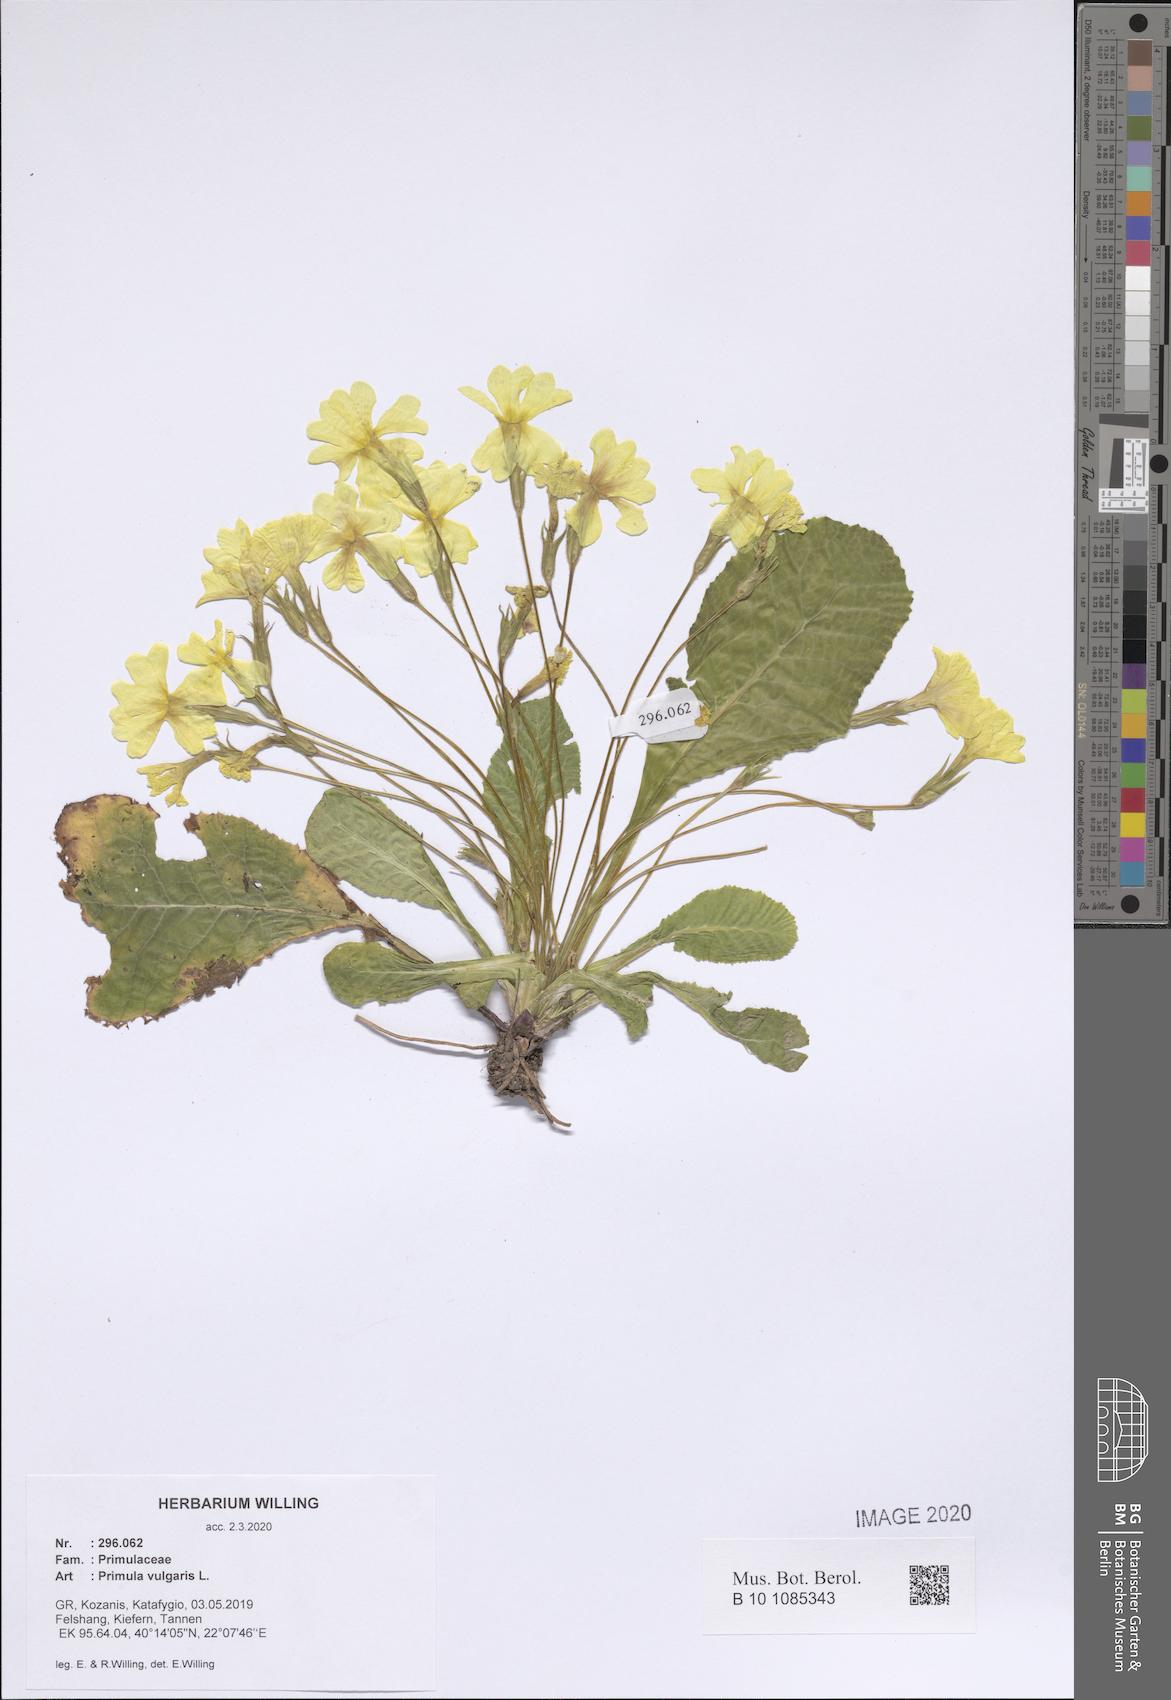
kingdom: Plantae
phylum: Tracheophyta
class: Magnoliopsida
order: Ericales
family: Primulaceae
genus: Primula
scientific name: Primula vulgaris
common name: Primrose
